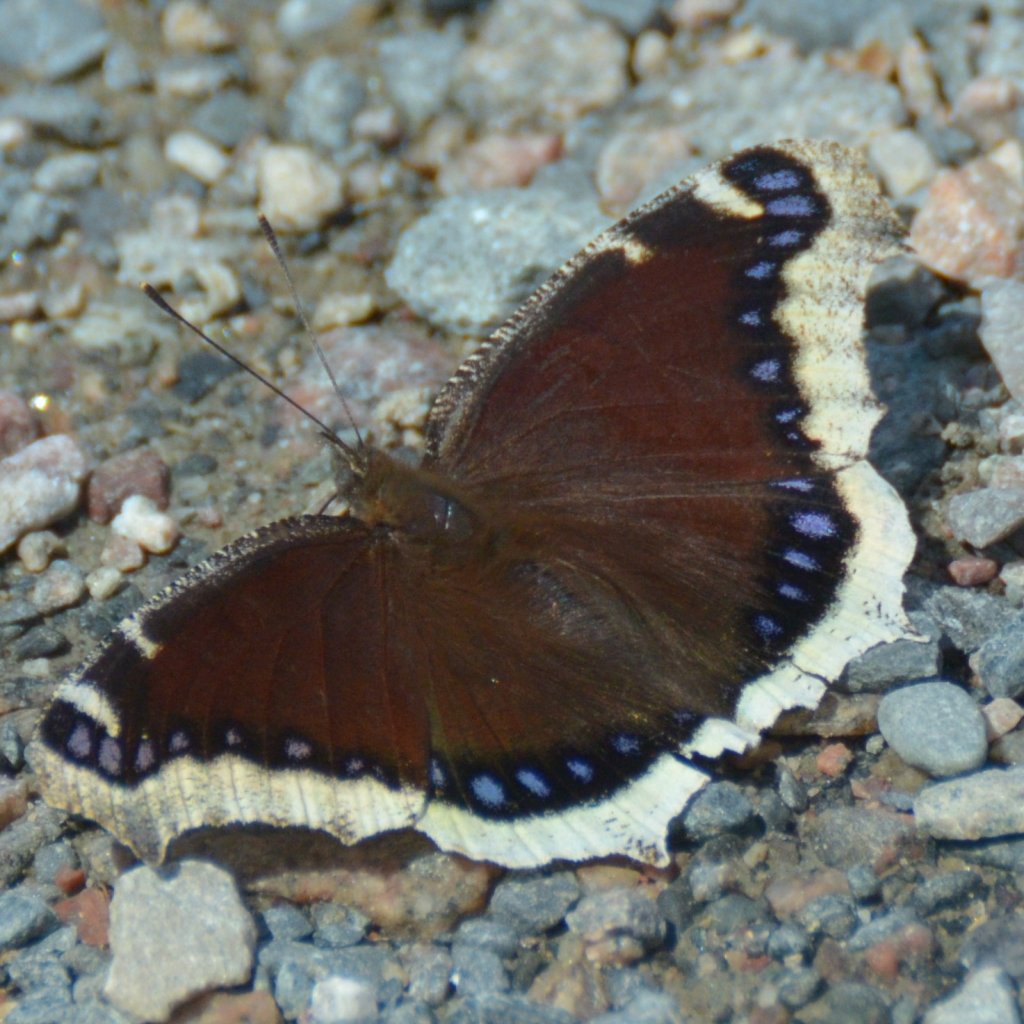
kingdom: Animalia
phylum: Arthropoda
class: Insecta
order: Lepidoptera
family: Nymphalidae
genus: Nymphalis
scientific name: Nymphalis antiopa
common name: Mourning Cloak
